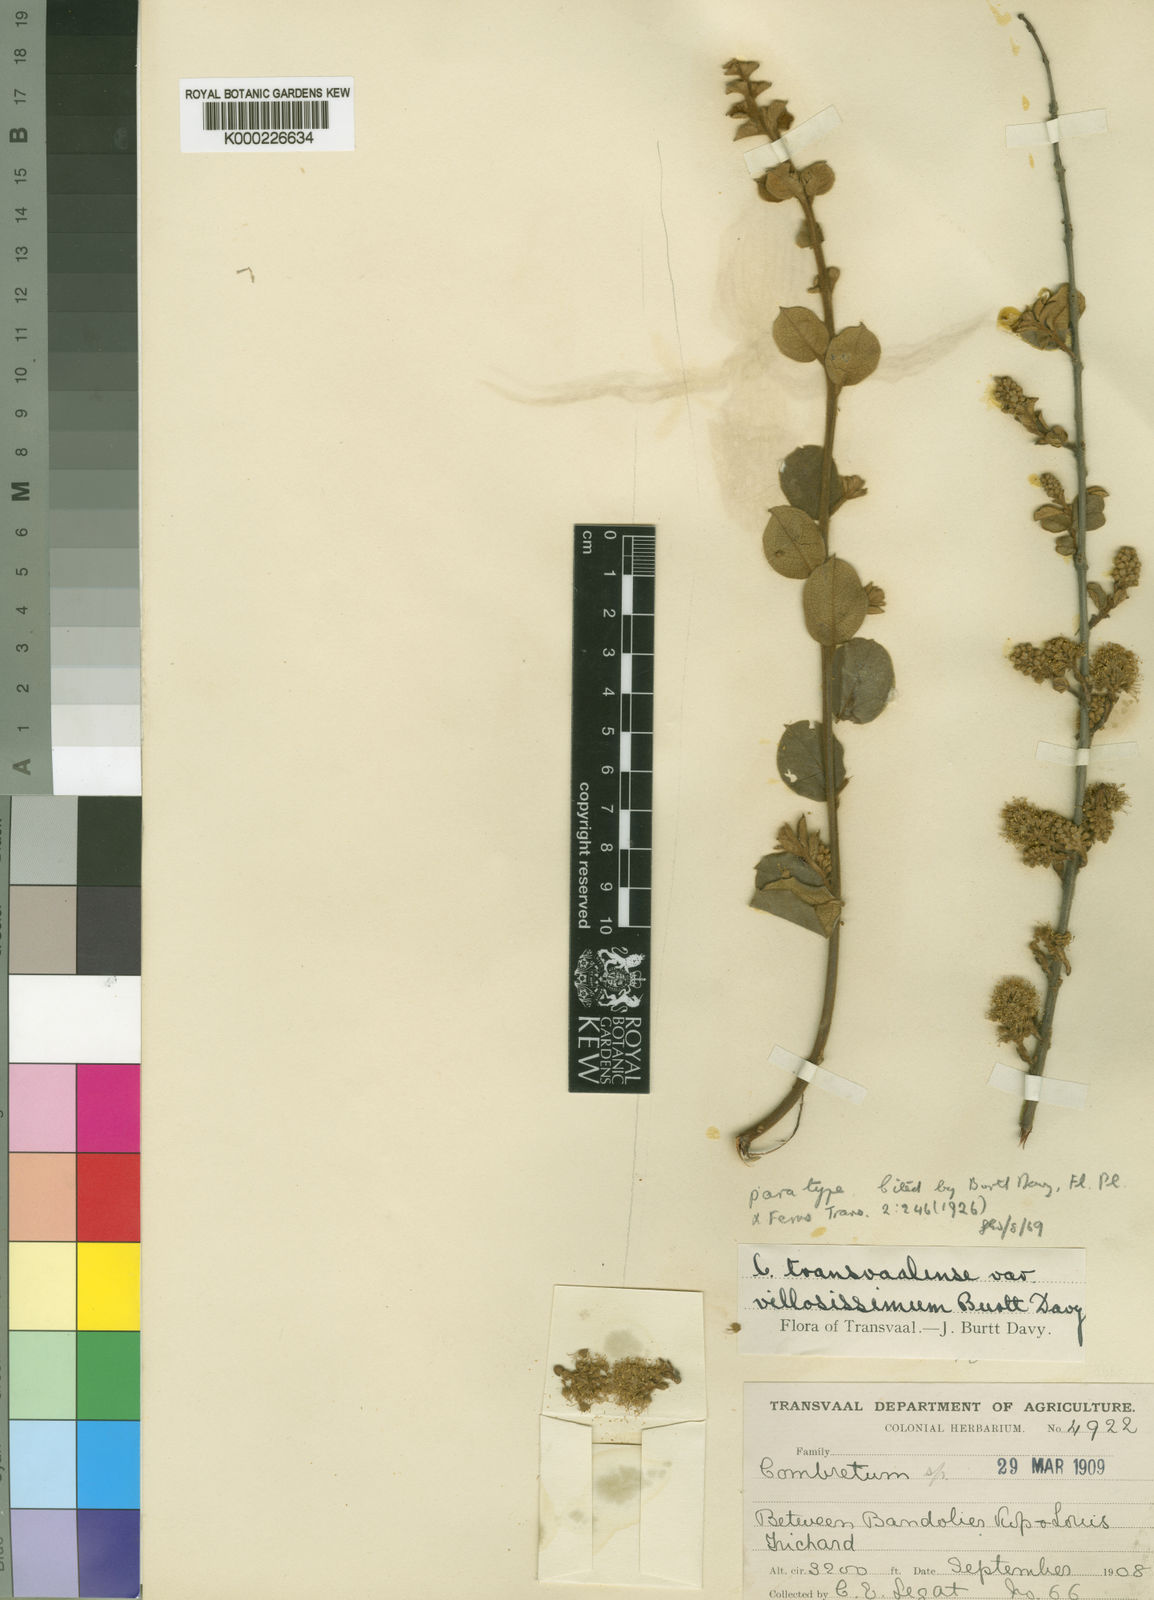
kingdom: Plantae
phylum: Tracheophyta
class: Magnoliopsida
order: Myrtales
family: Combretaceae
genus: Combretum
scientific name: Combretum hereroense
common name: Russet bushwillow
